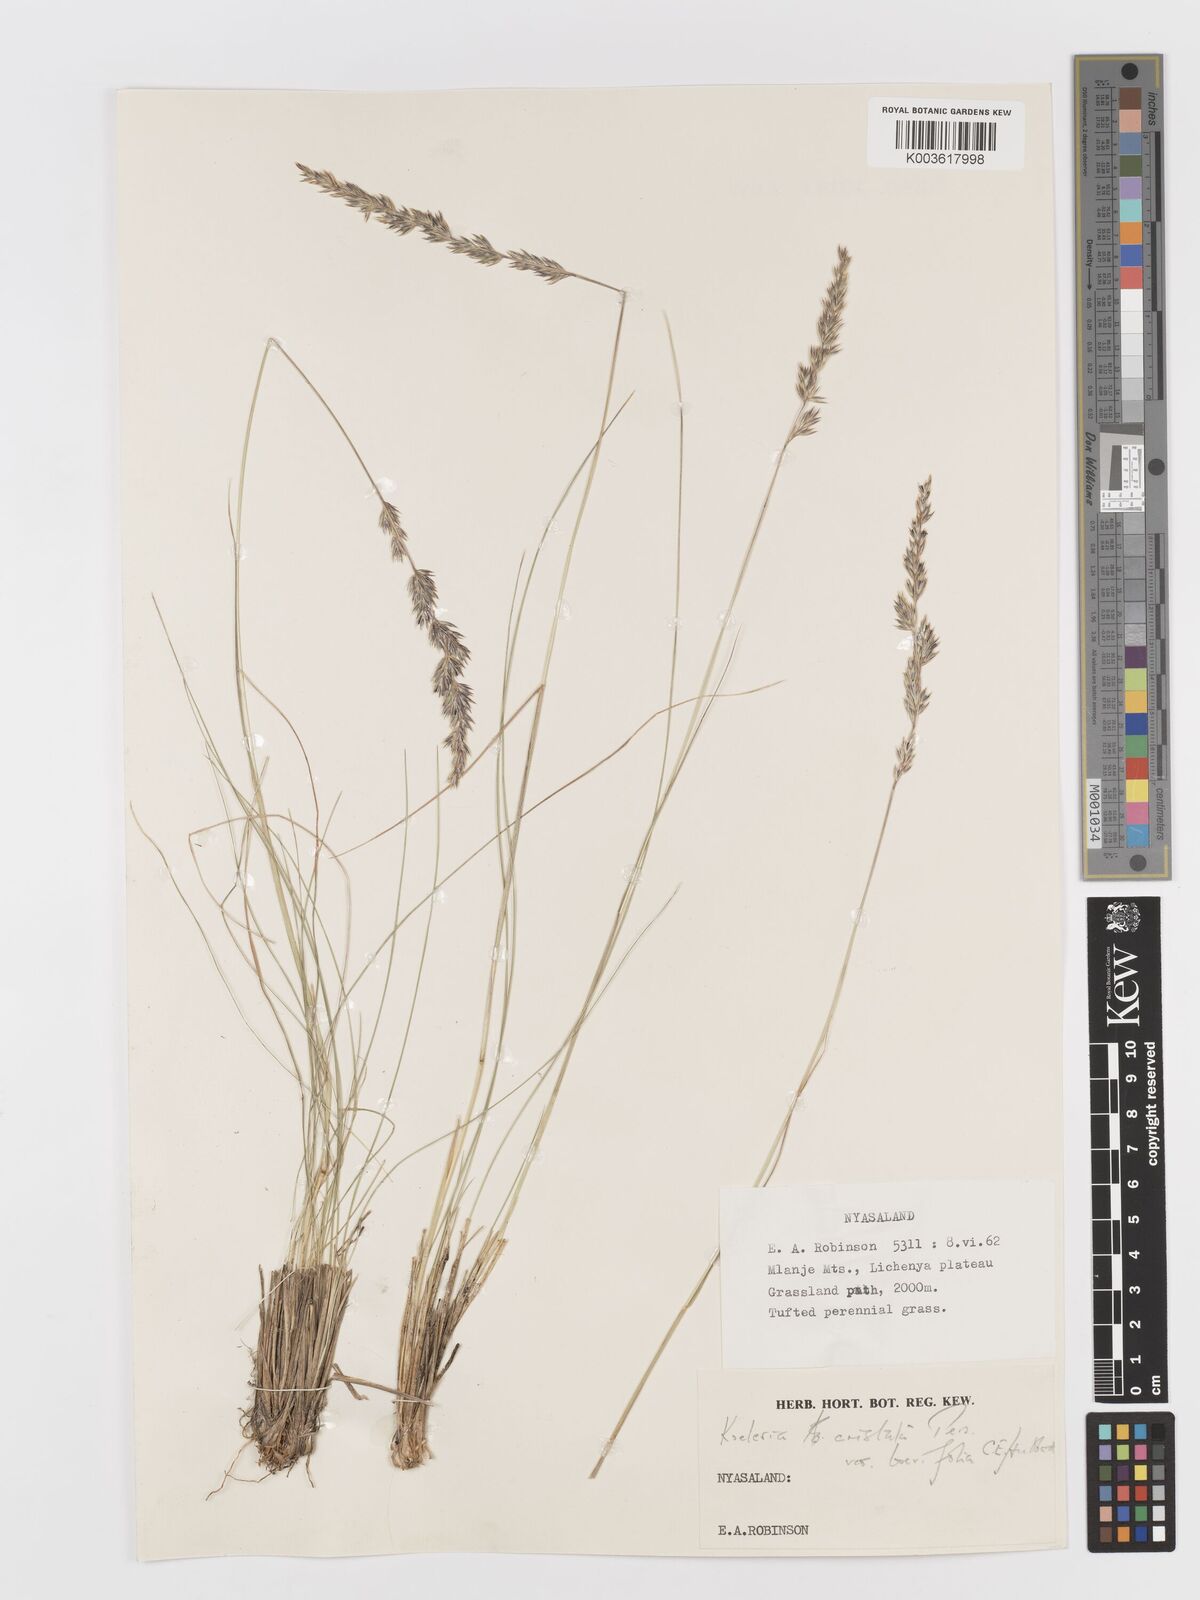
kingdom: Plantae
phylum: Tracheophyta
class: Liliopsida
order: Poales
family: Poaceae
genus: Koeleria
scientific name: Koeleria capensis
